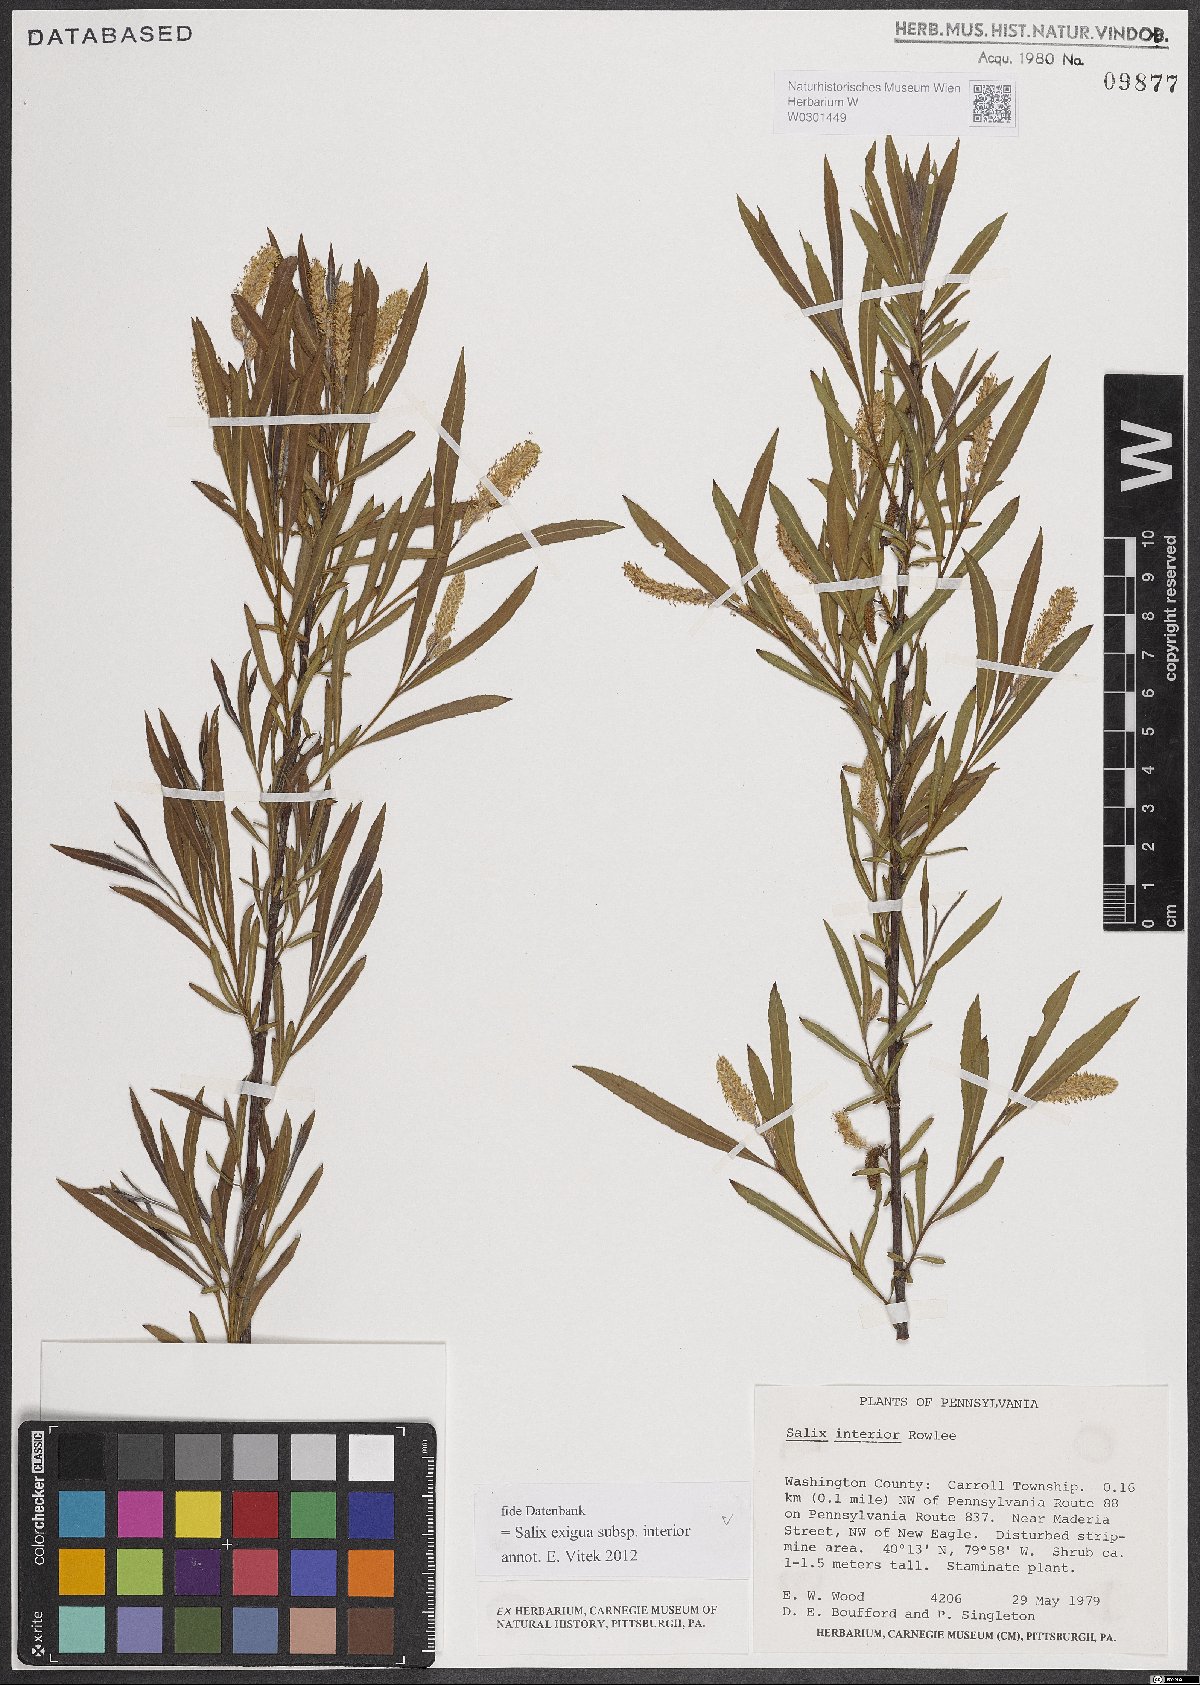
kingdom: Plantae
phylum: Tracheophyta
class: Magnoliopsida
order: Malpighiales
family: Salicaceae
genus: Salix
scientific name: Salix interior
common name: Sandbar willow
